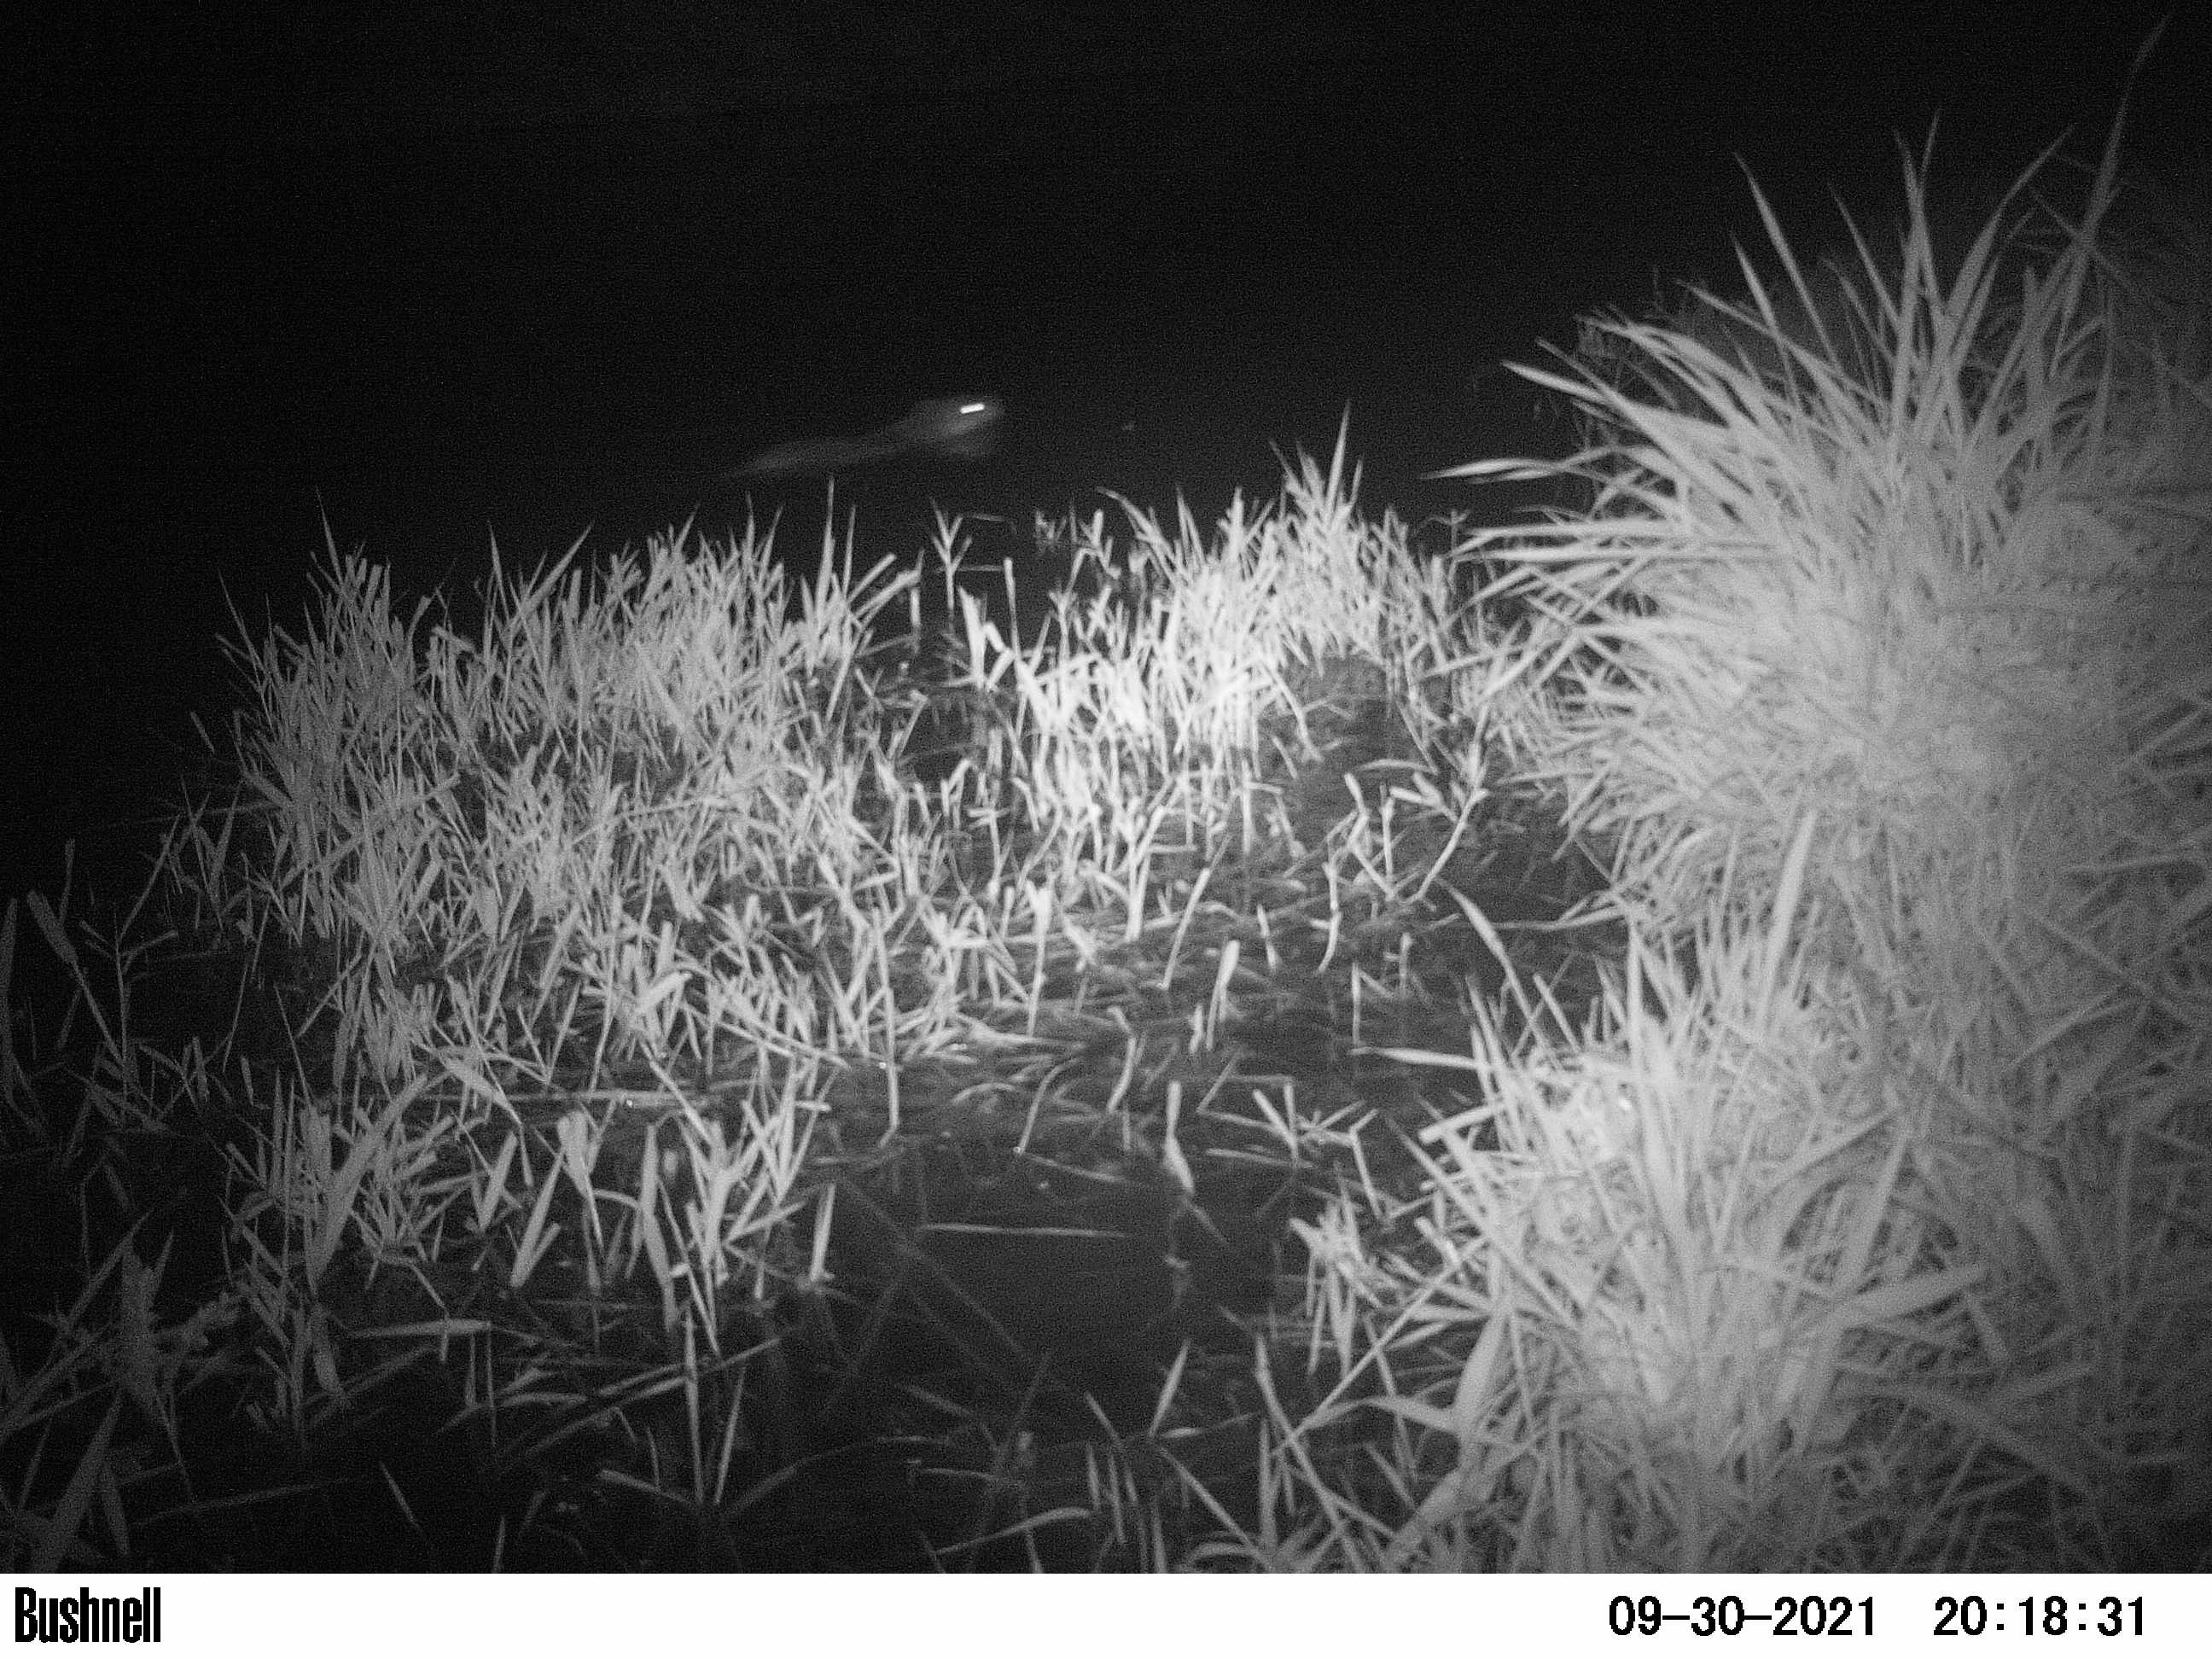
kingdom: Animalia
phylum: Chordata
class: Mammalia
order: Rodentia
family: Muridae
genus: Rattus
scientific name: Rattus norvegicus
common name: Brown rat
